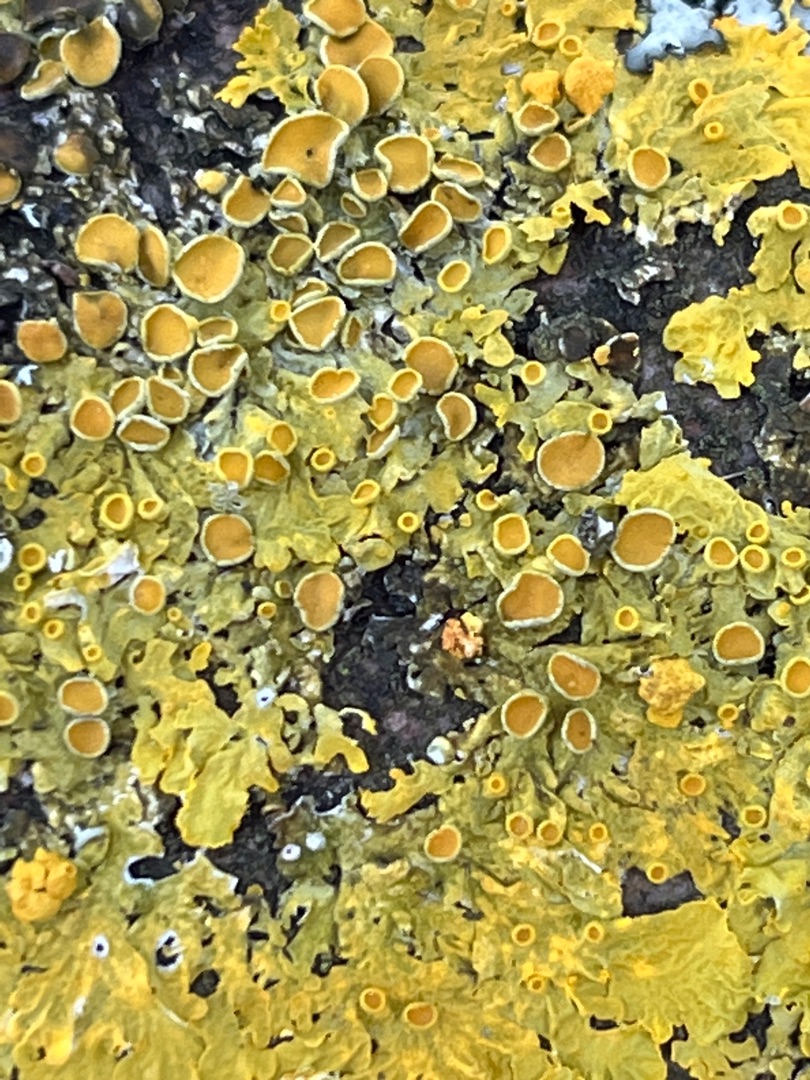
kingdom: Fungi
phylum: Ascomycota
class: Lecanoromycetes
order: Teloschistales
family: Teloschistaceae
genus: Xanthoria
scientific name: Xanthoria parietina
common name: Almindelig væggelav
